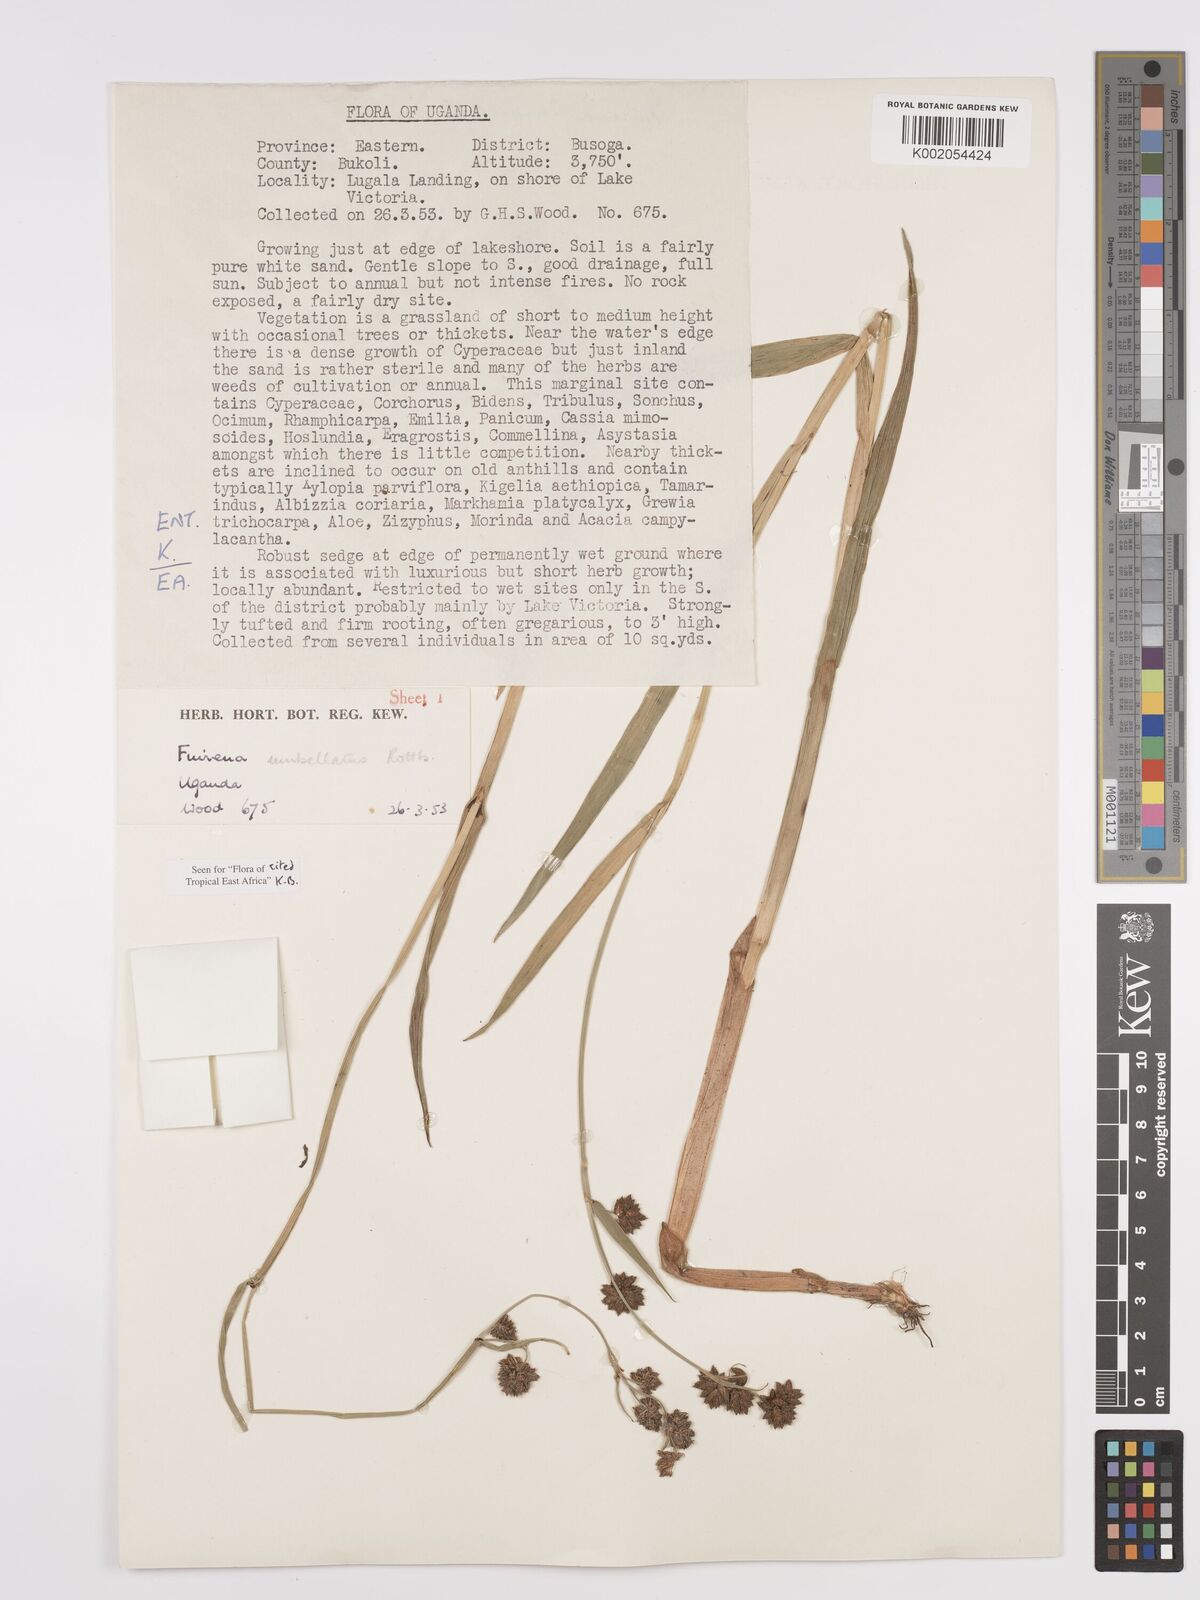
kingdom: Plantae
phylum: Tracheophyta
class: Liliopsida
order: Poales
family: Cyperaceae
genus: Fuirena
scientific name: Fuirena umbellata
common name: Yefen
